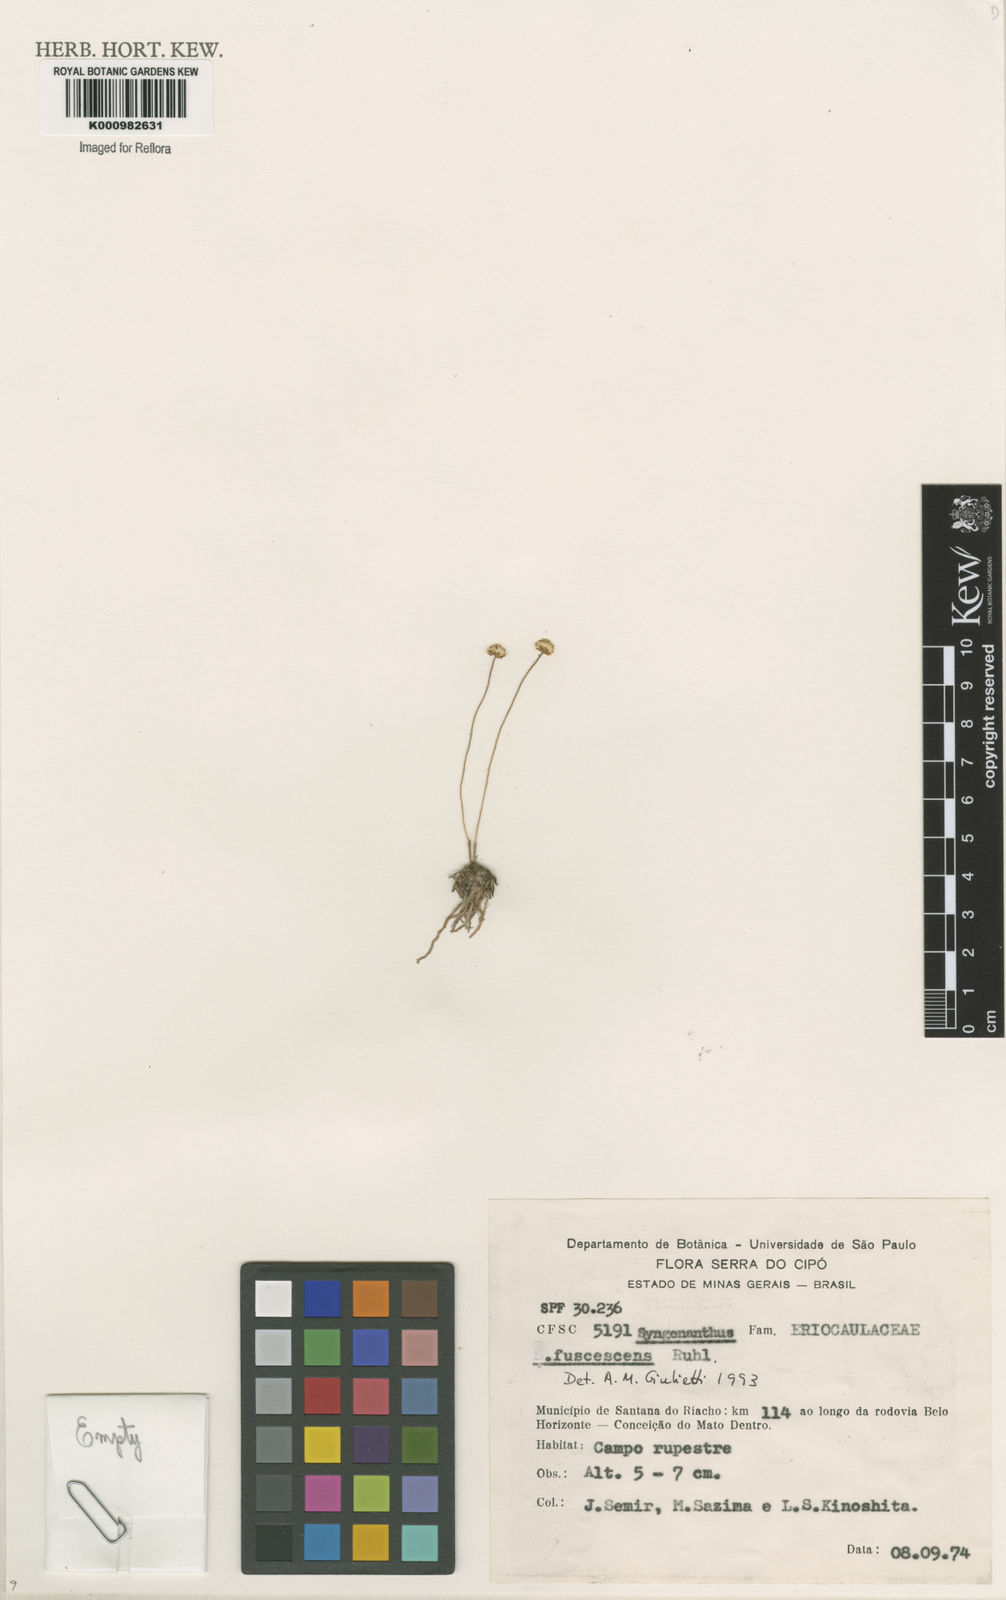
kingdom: Plantae
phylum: Tracheophyta
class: Liliopsida
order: Poales
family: Eriocaulaceae
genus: Syngonanthus
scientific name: Syngonanthus fuscescens
